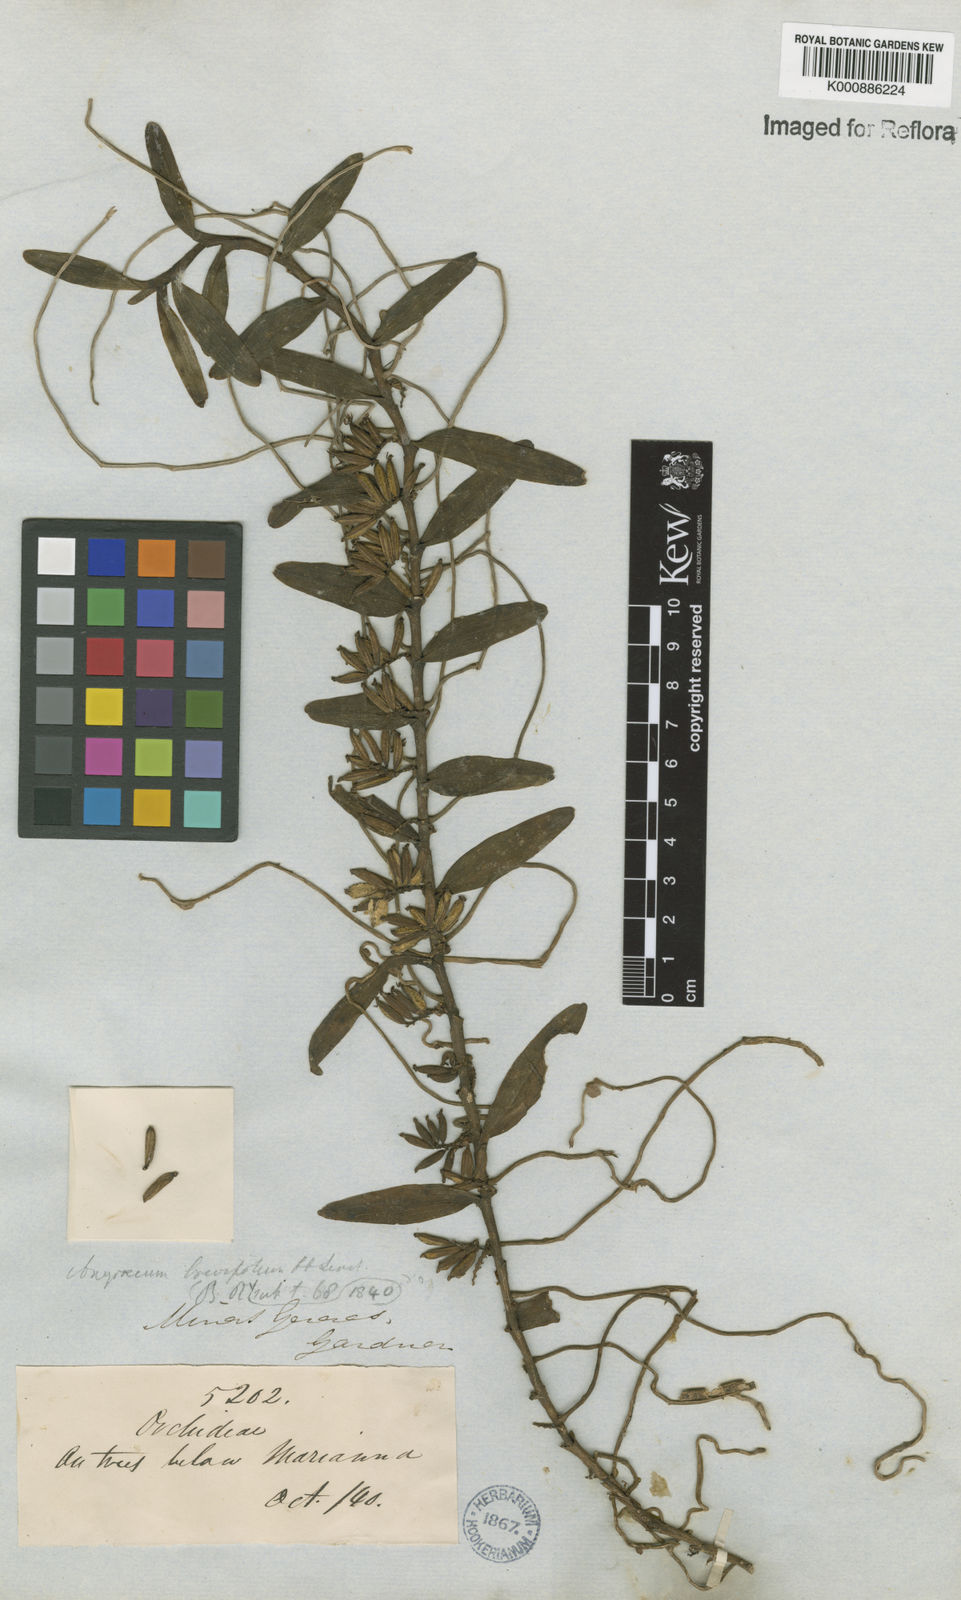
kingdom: Plantae
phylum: Tracheophyta
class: Liliopsida
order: Asparagales
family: Orchidaceae
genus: Campylocentrum
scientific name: Campylocentrum brevifolium
